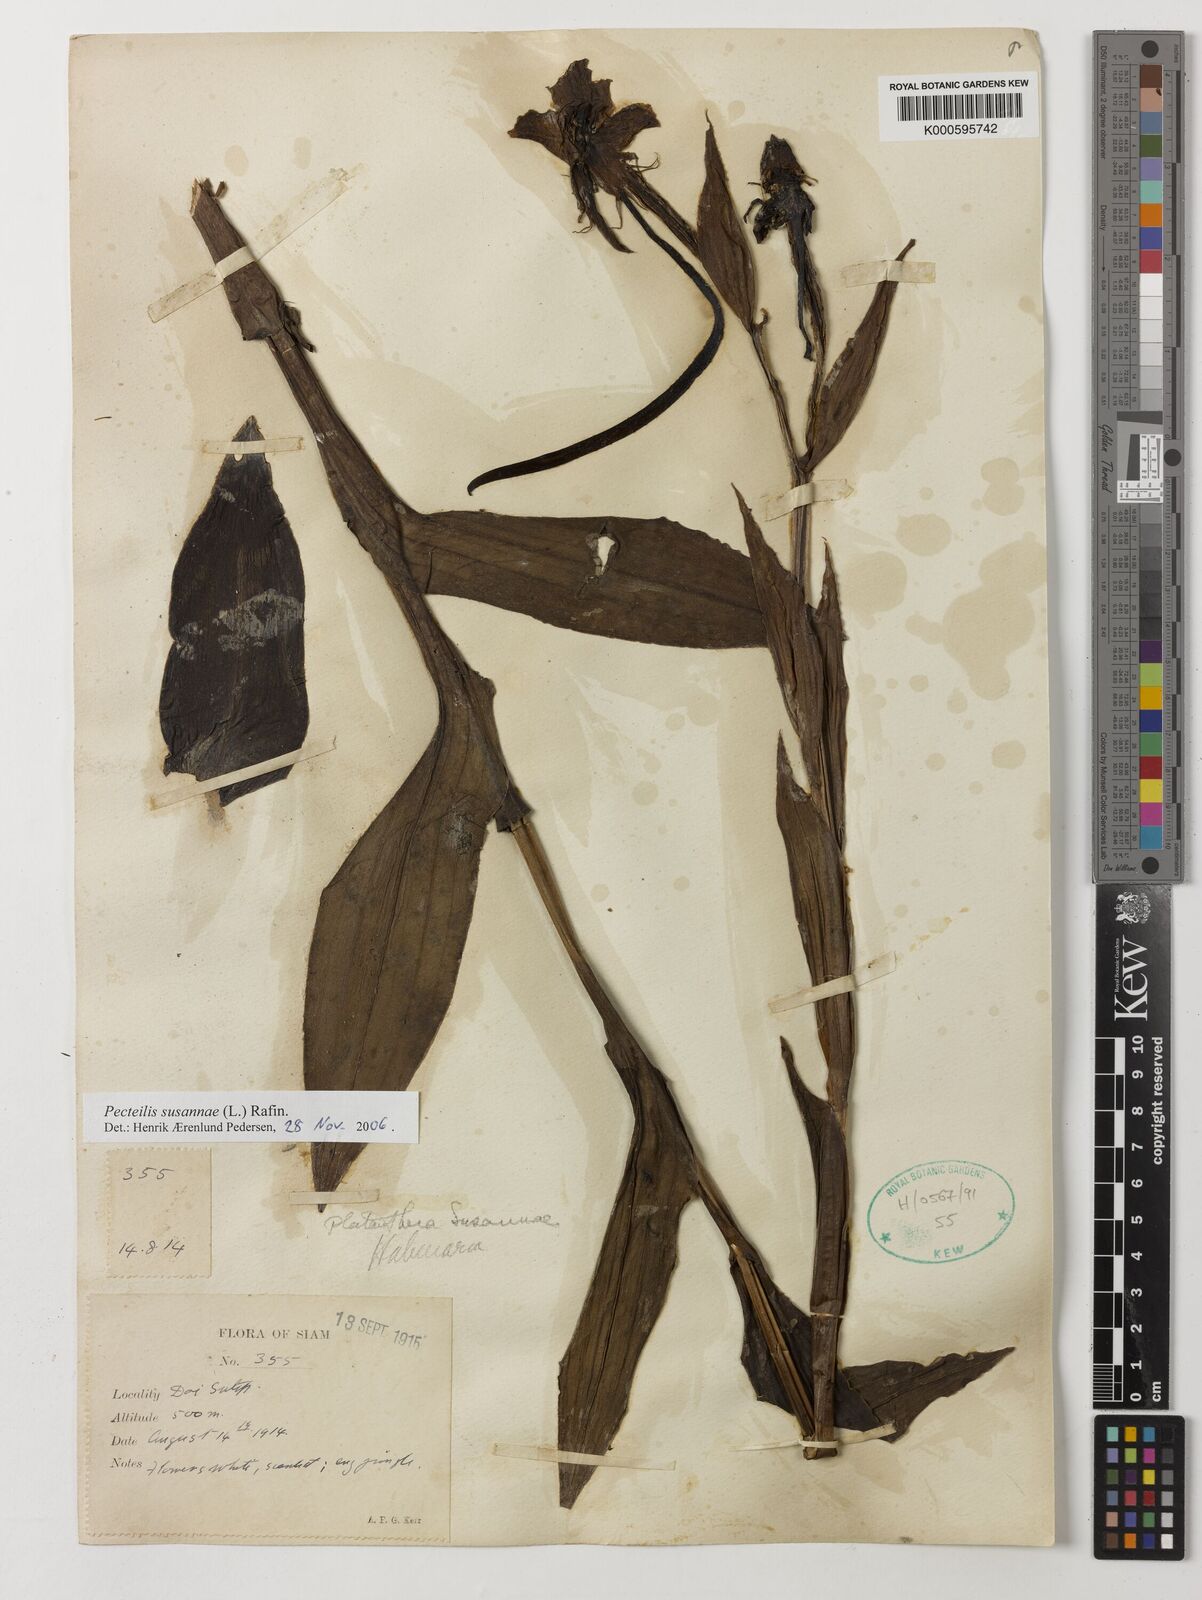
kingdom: Plantae
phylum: Tracheophyta
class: Liliopsida
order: Asparagales
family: Orchidaceae
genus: Pecteilis
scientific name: Pecteilis susannae
